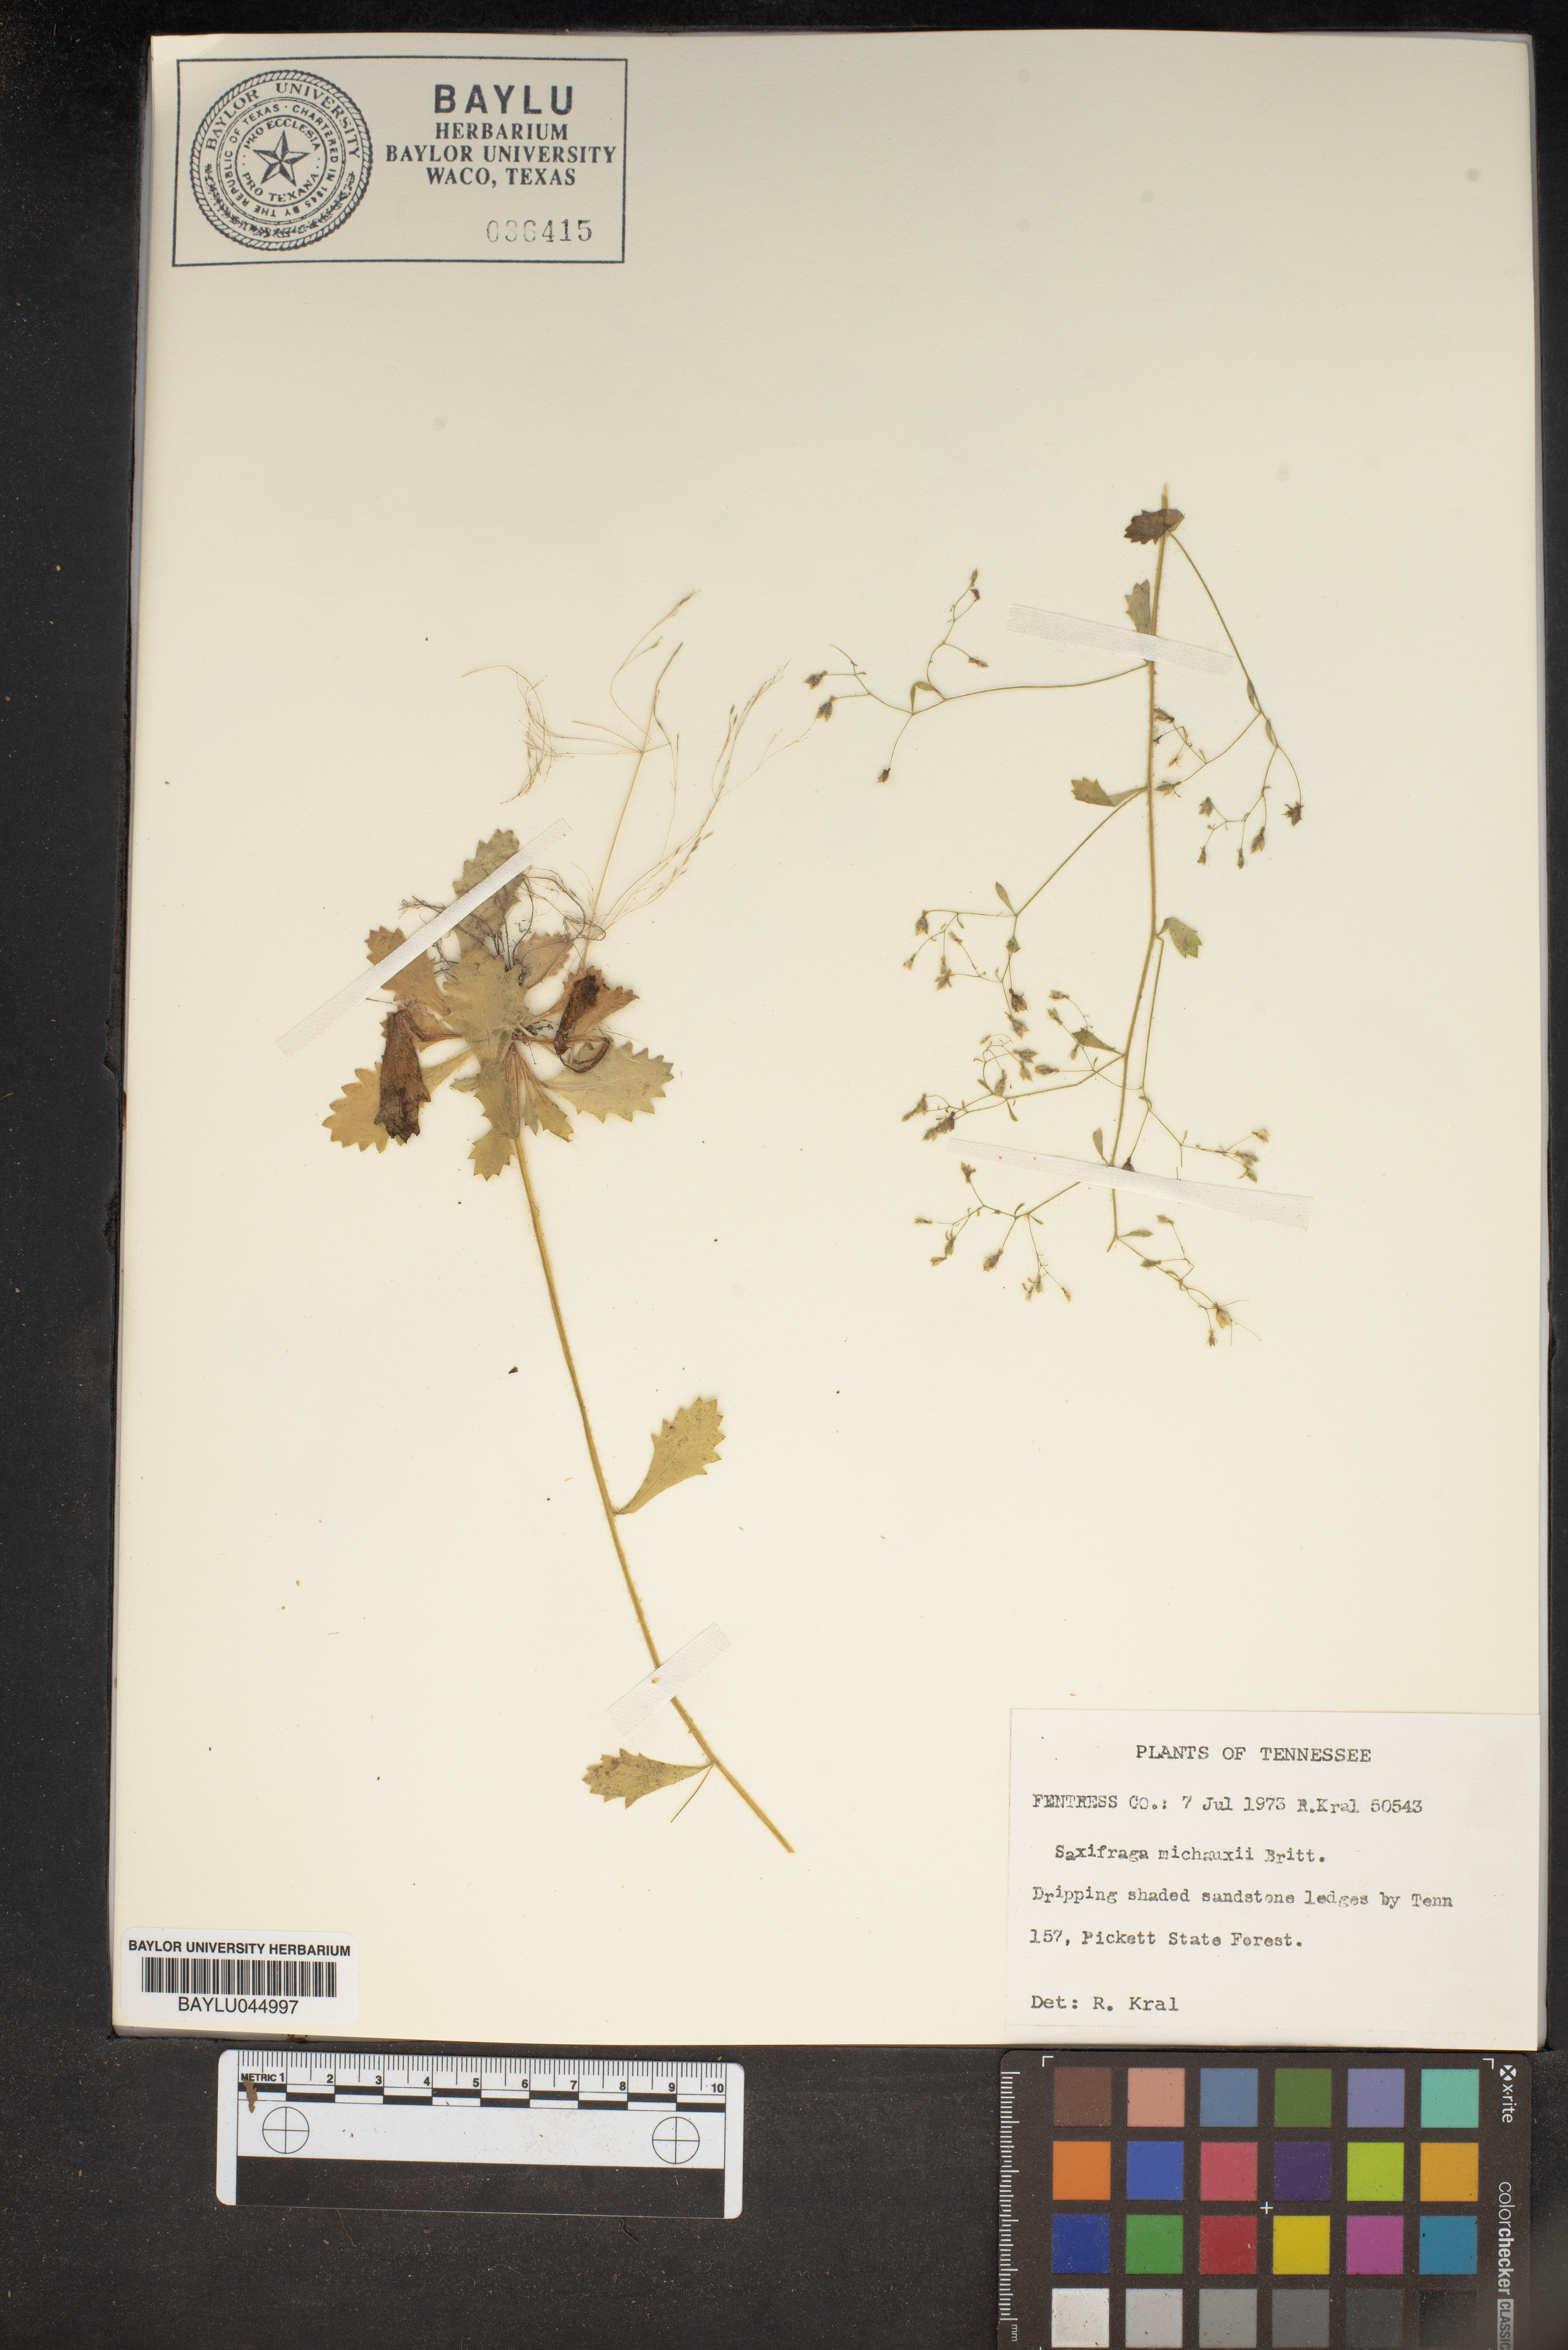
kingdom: Plantae
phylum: Tracheophyta
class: Magnoliopsida
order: Saxifragales
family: Saxifragaceae
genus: Micranthes
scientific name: Micranthes petiolaris
